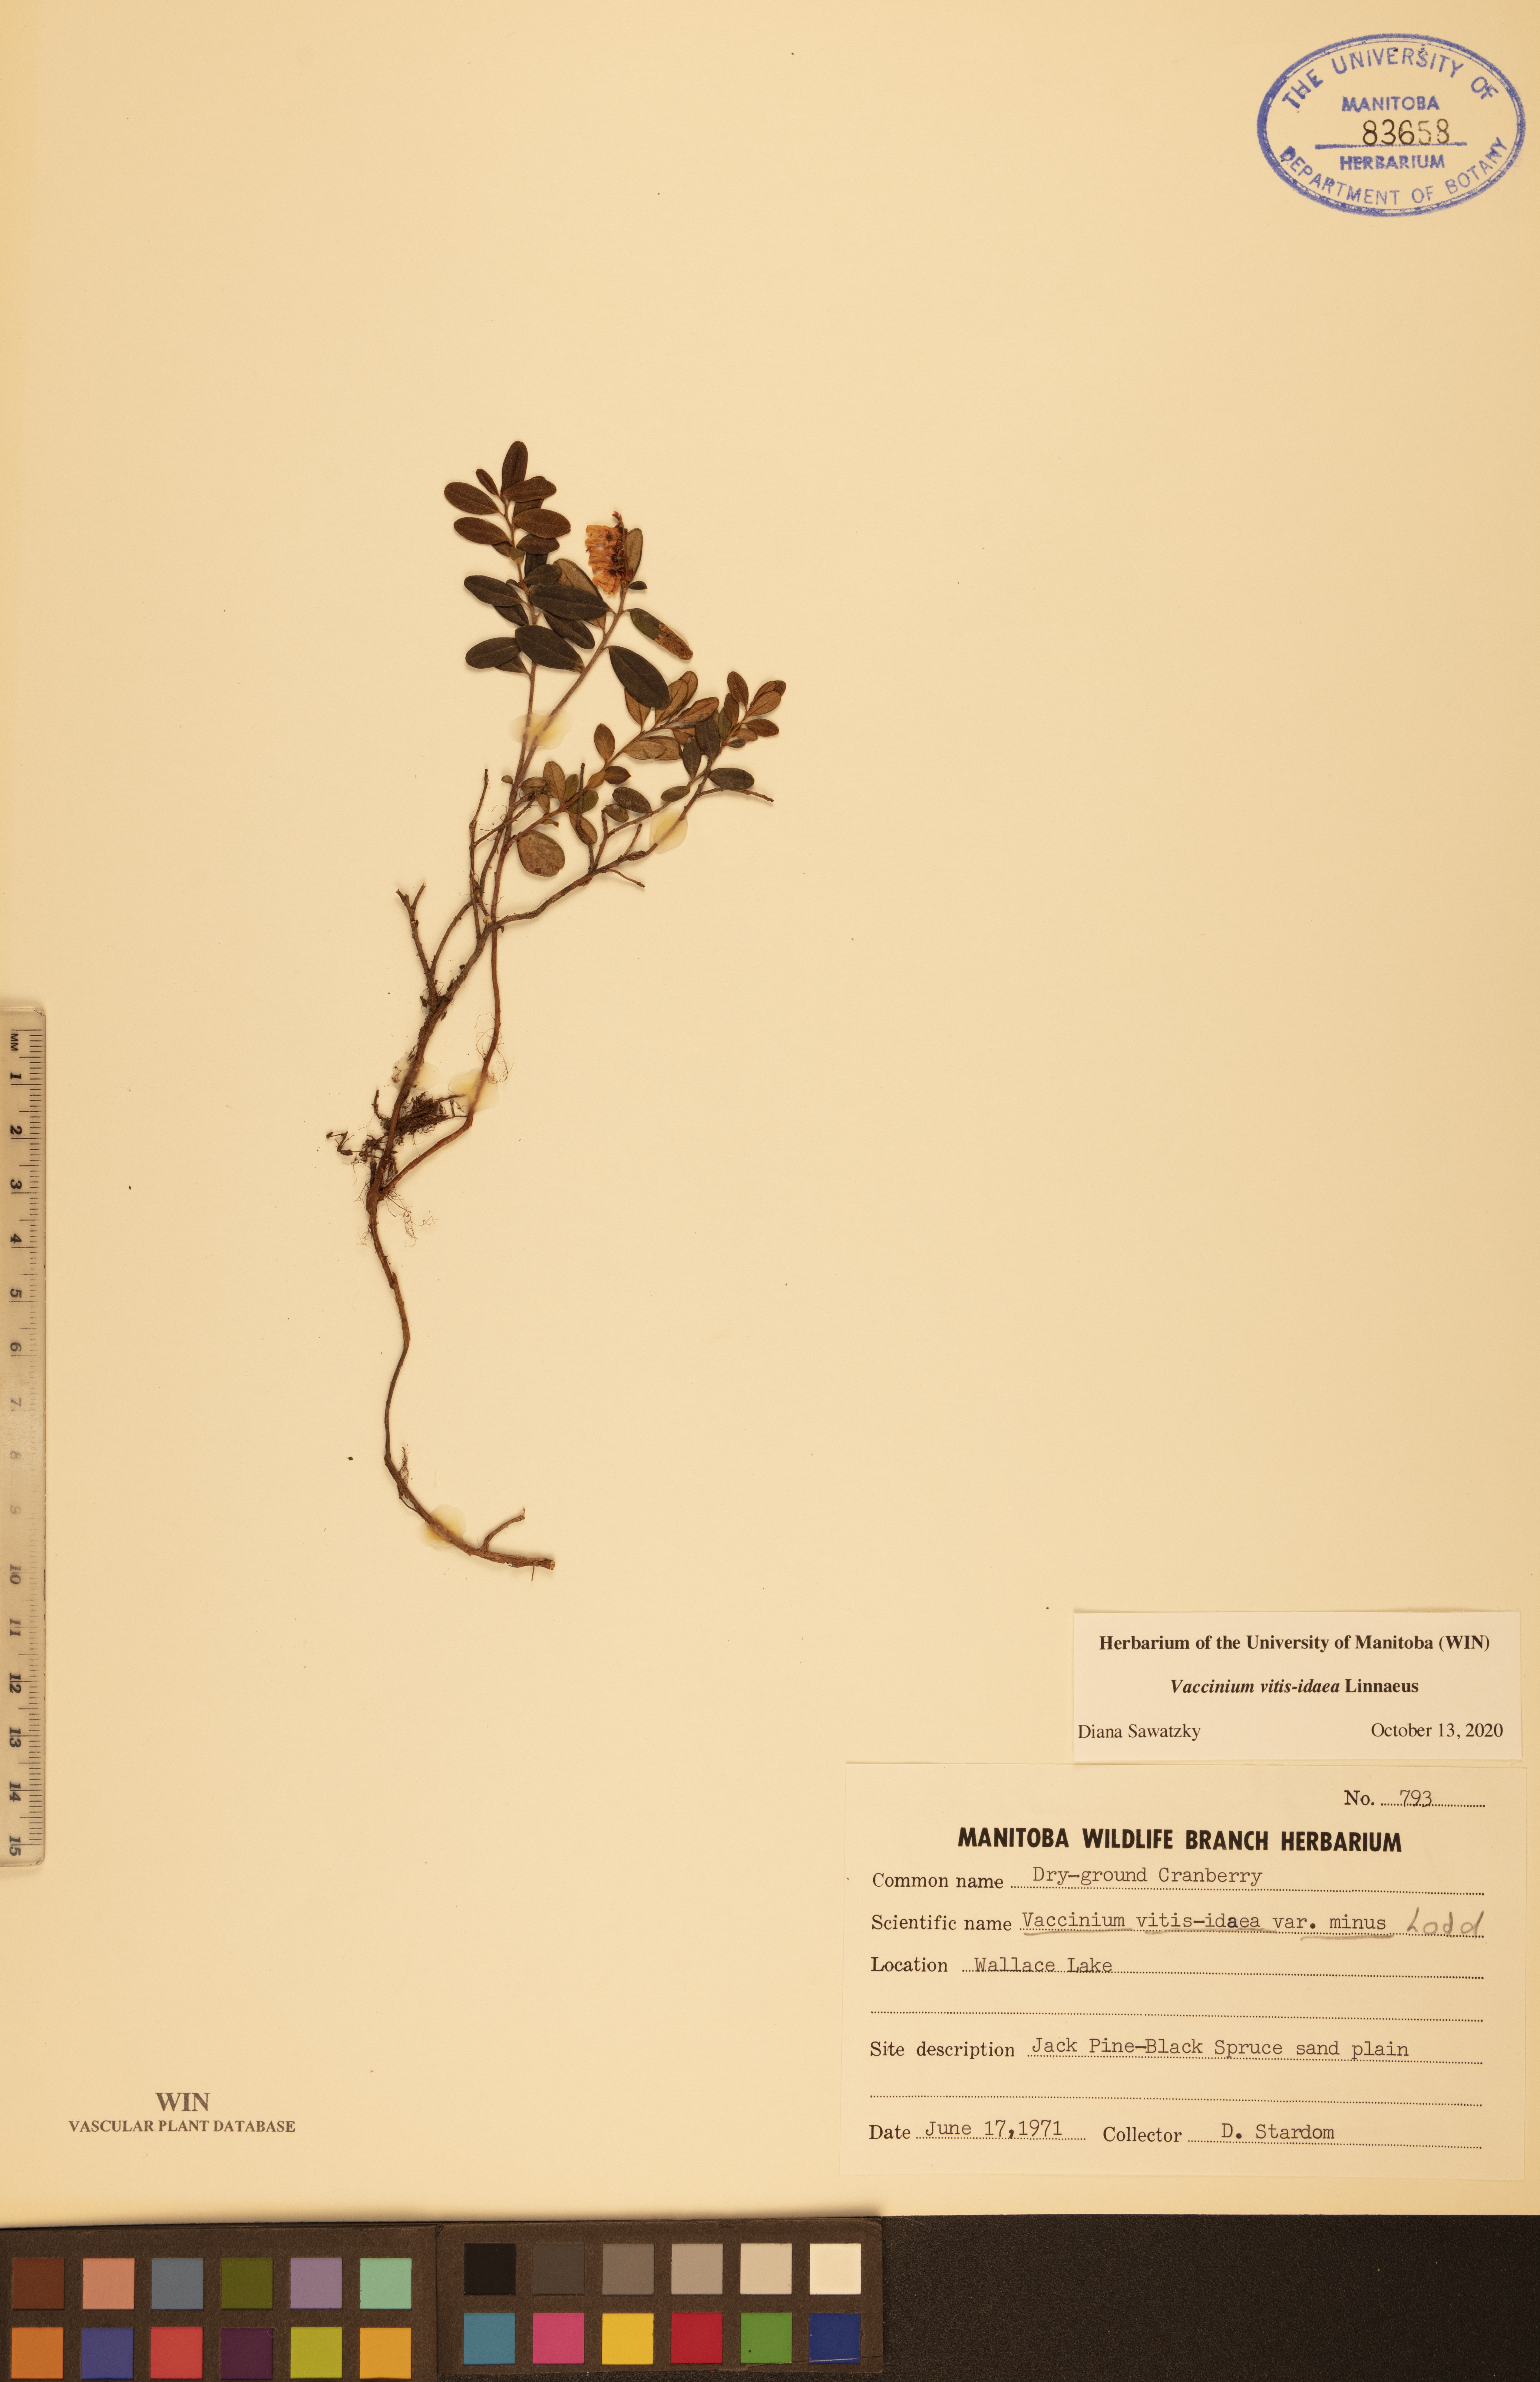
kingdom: Plantae
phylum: Tracheophyta
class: Magnoliopsida
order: Ericales
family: Ericaceae
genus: Vaccinium
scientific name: Vaccinium vitis-idaea
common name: Cowberry
